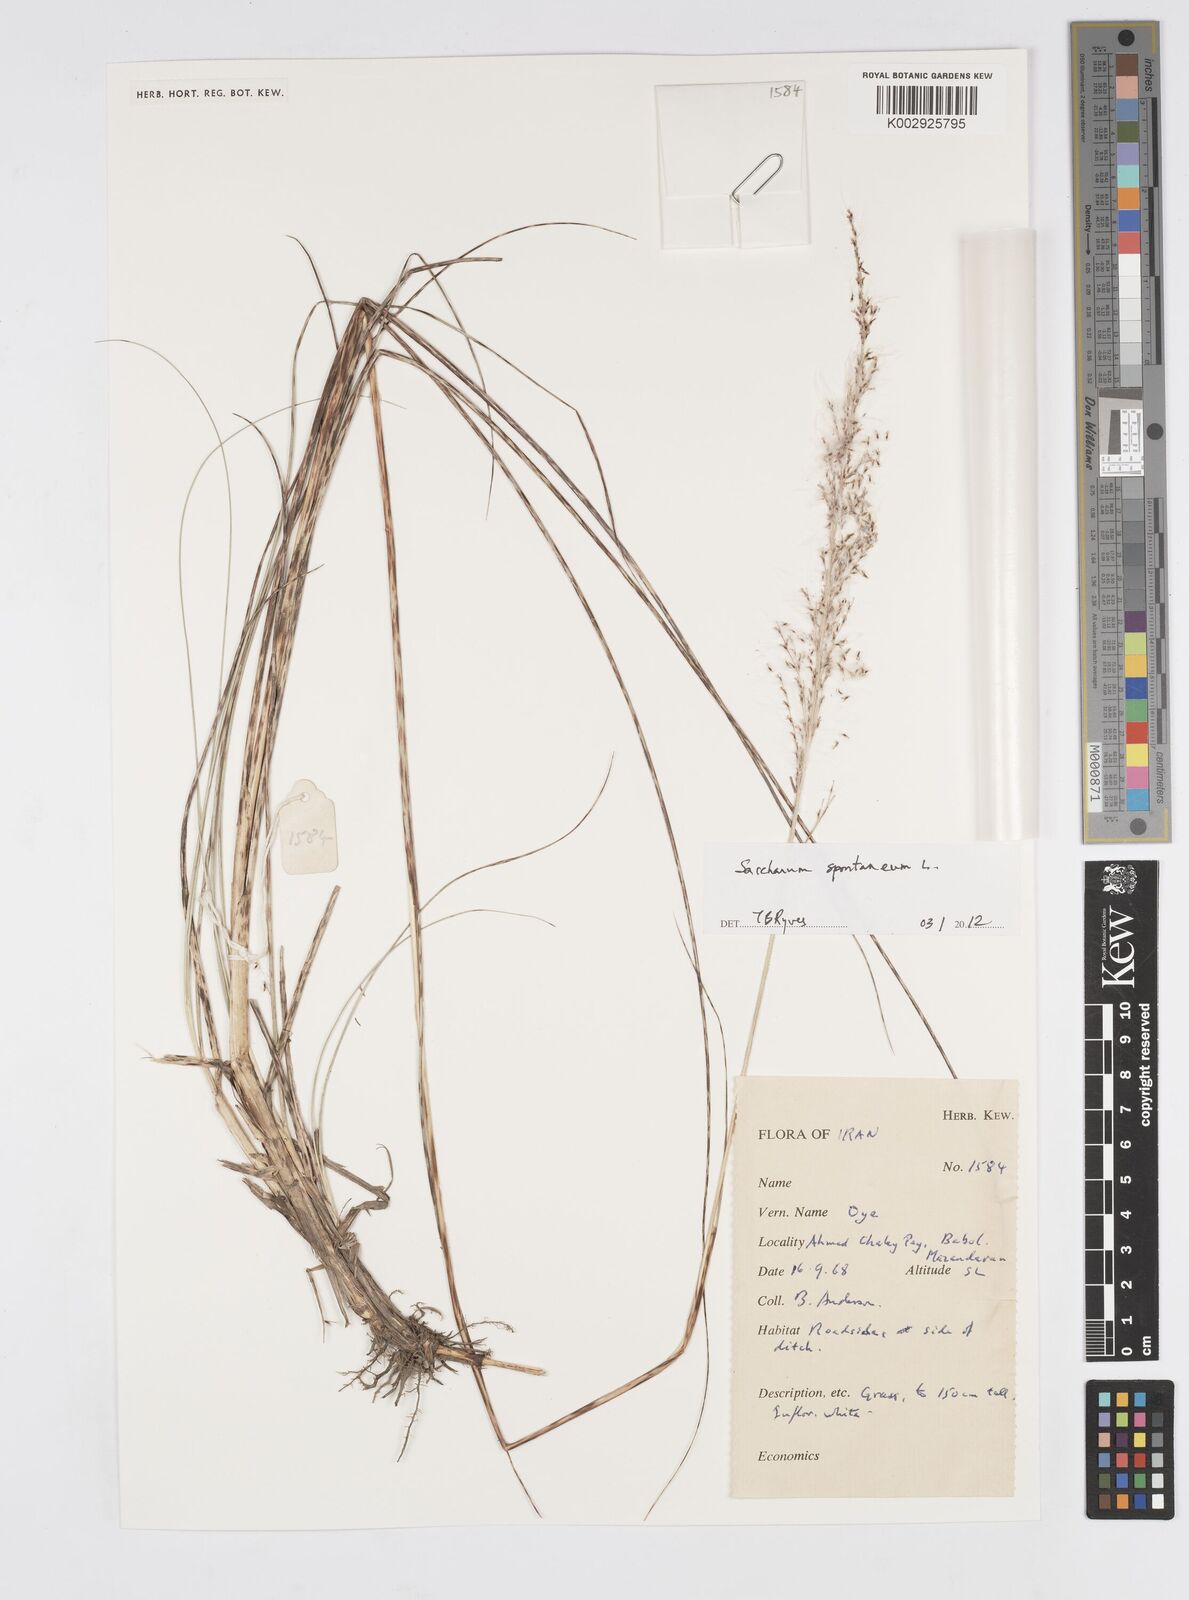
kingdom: Plantae
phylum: Tracheophyta
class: Liliopsida
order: Poales
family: Poaceae
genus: Saccharum
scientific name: Saccharum spontaneum
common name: Wild sugarcane
